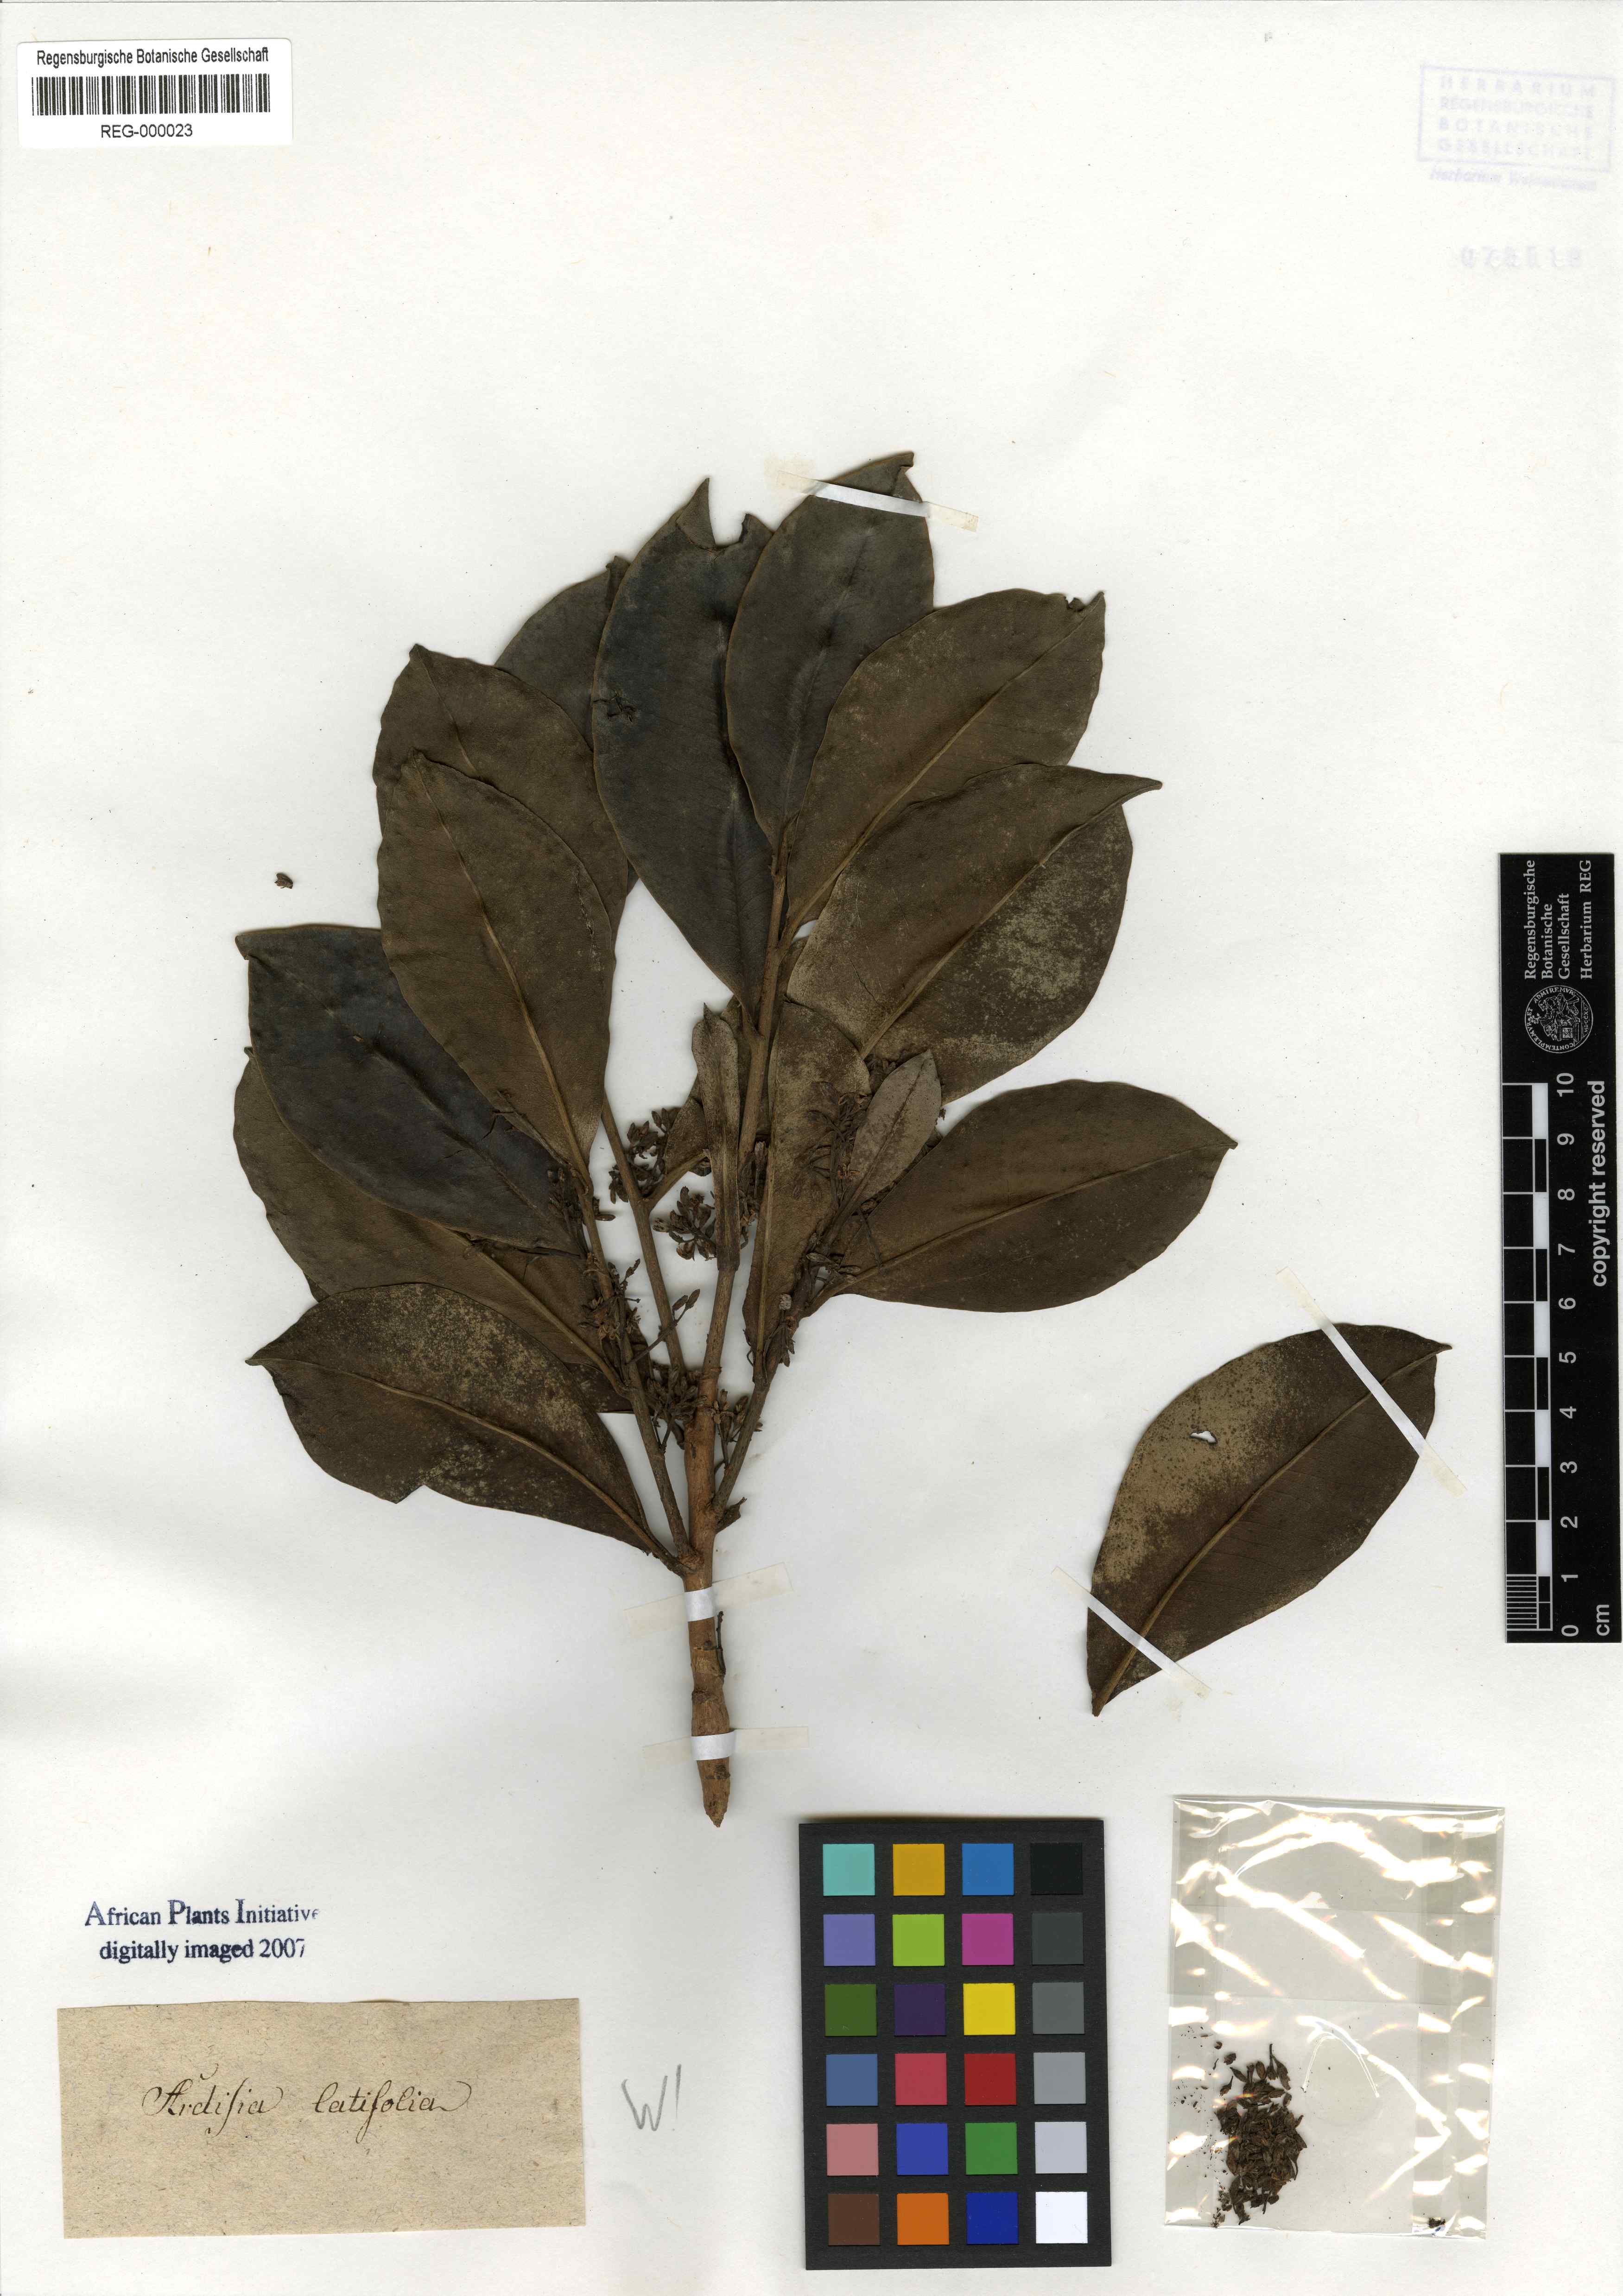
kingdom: Plantae
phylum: Tracheophyta
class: Magnoliopsida
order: Ericales
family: Primulaceae
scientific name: Primulaceae
